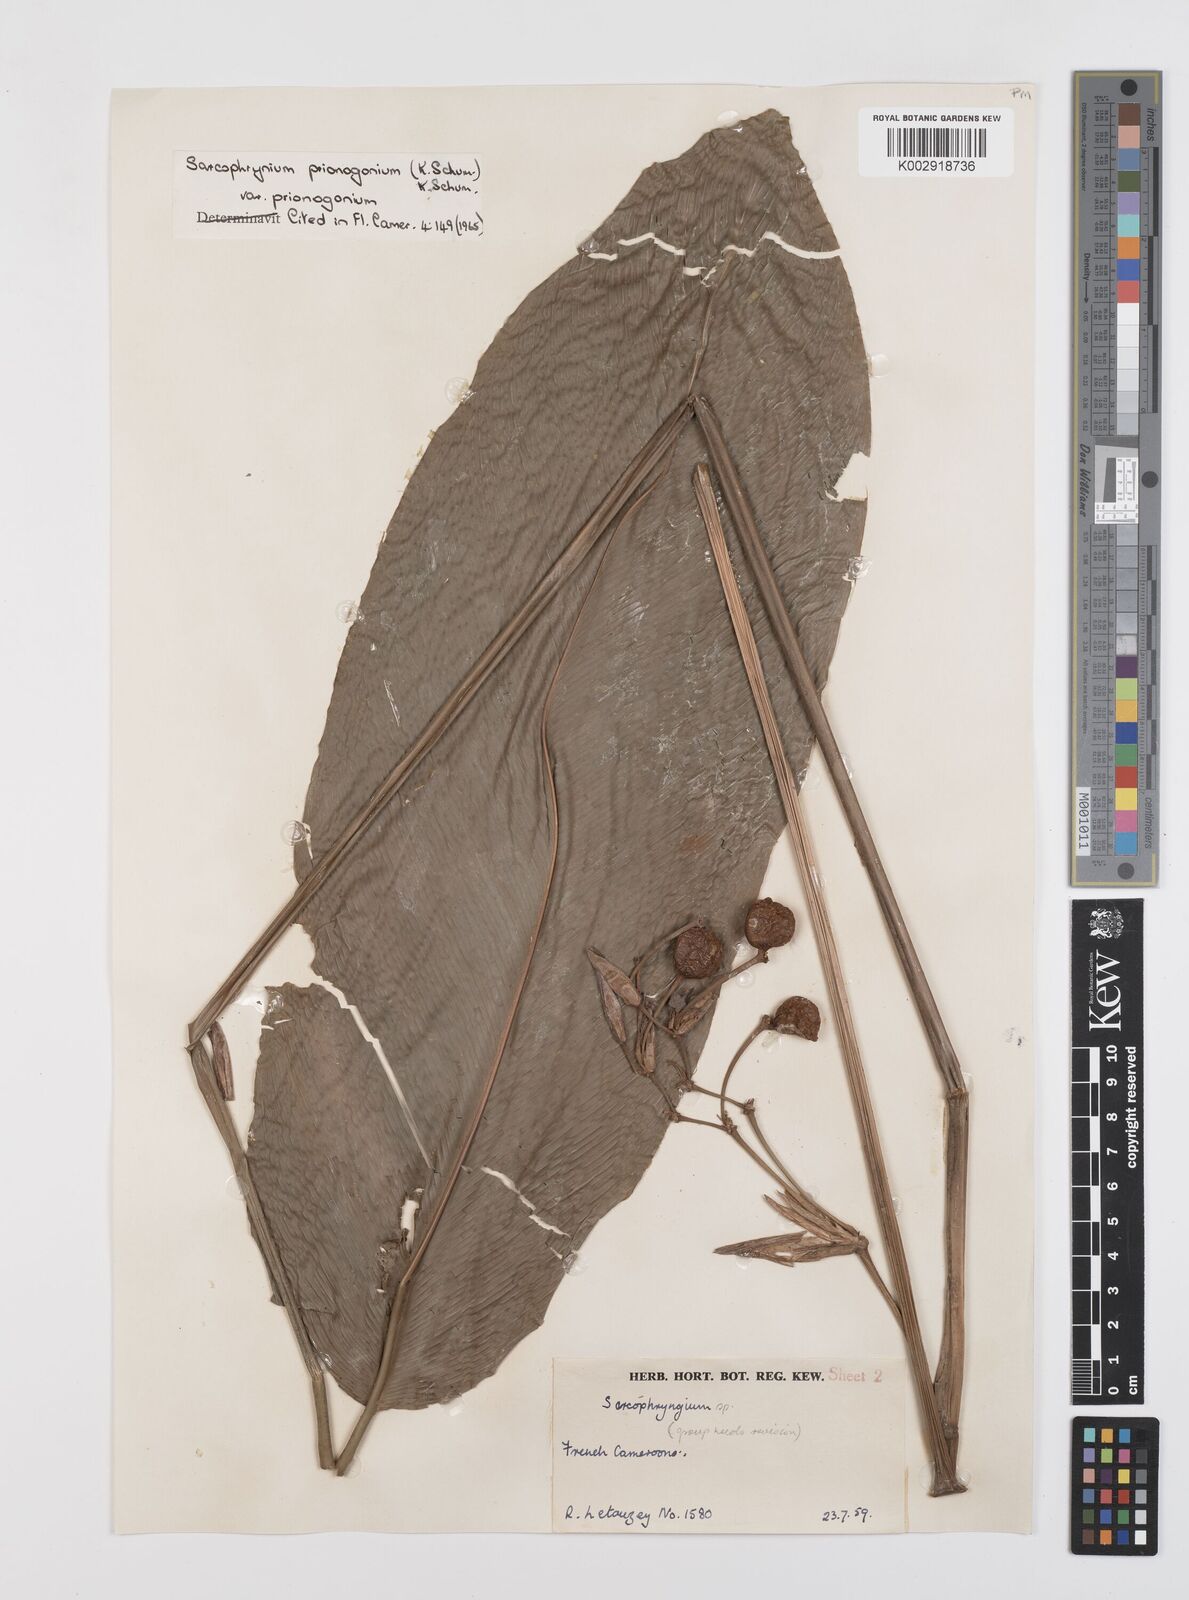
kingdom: Plantae
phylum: Tracheophyta
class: Liliopsida
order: Zingiberales
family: Marantaceae
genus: Sarcophrynium
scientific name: Sarcophrynium prionogonium
